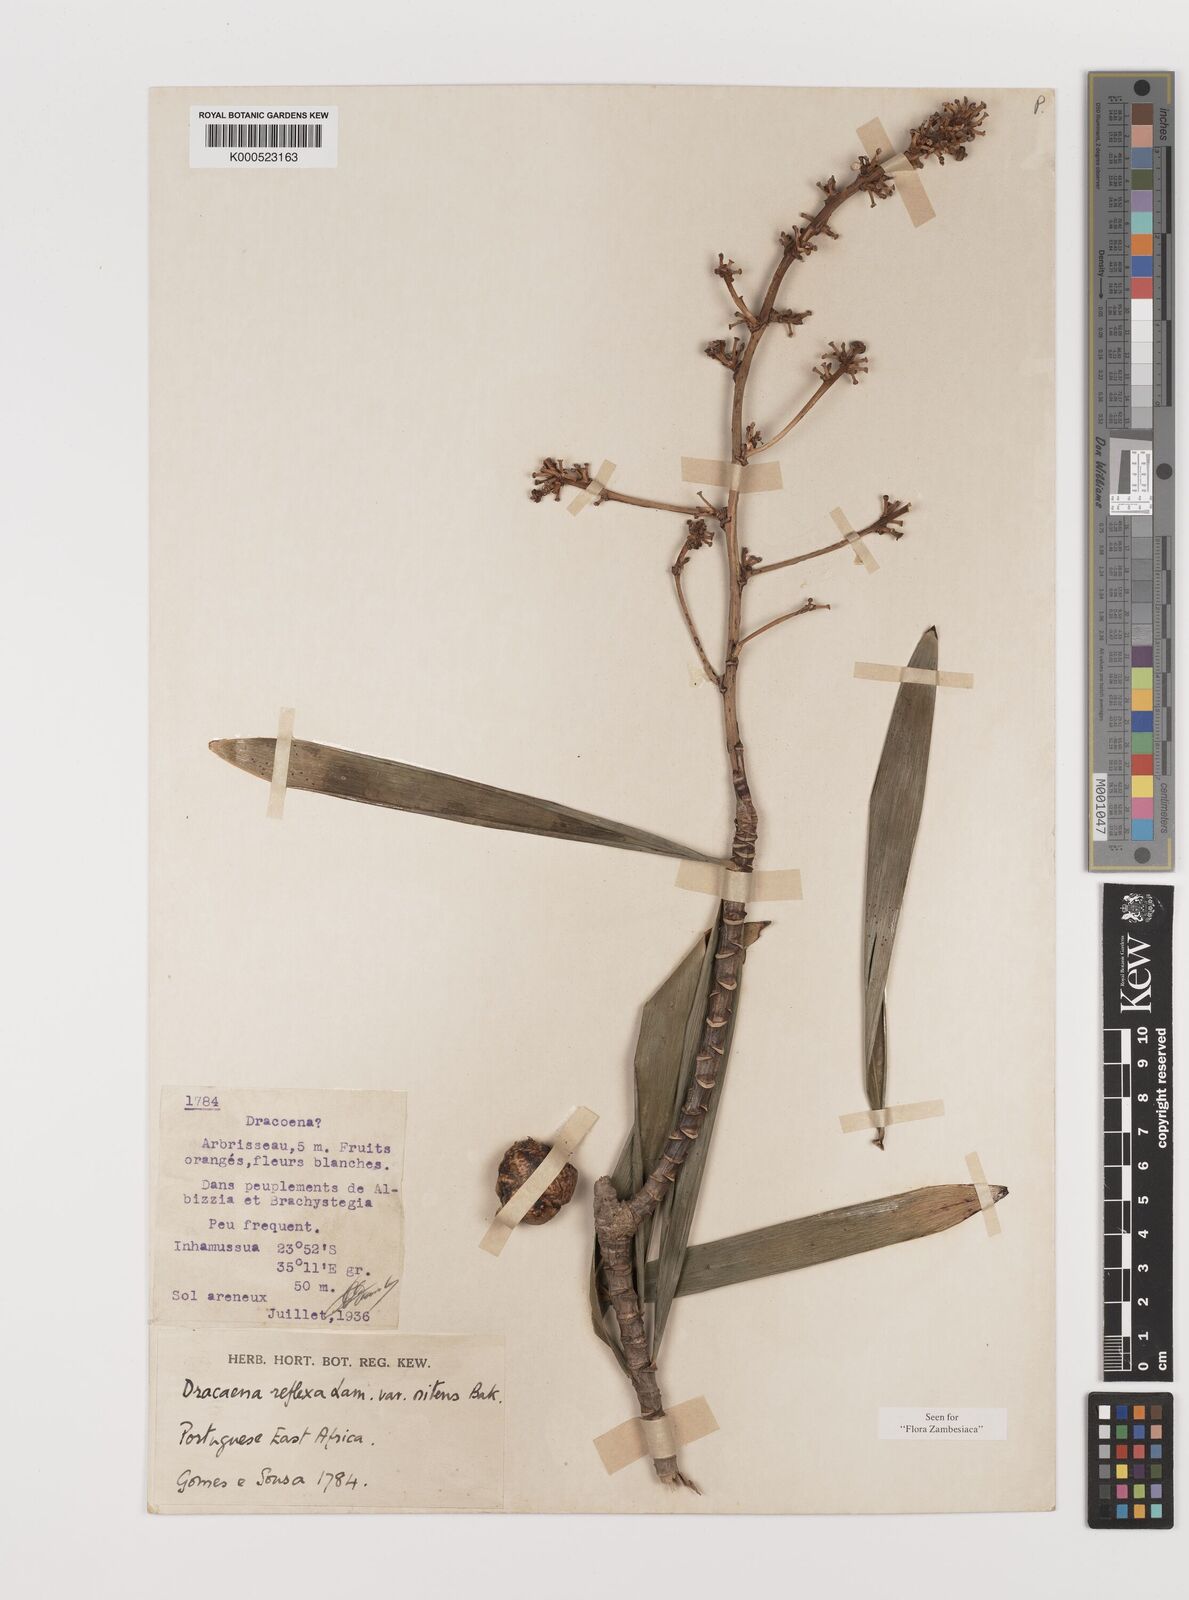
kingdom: Plantae
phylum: Tracheophyta
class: Liliopsida
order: Asparagales
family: Asparagaceae
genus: Dracaena
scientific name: Dracaena usambarensis
